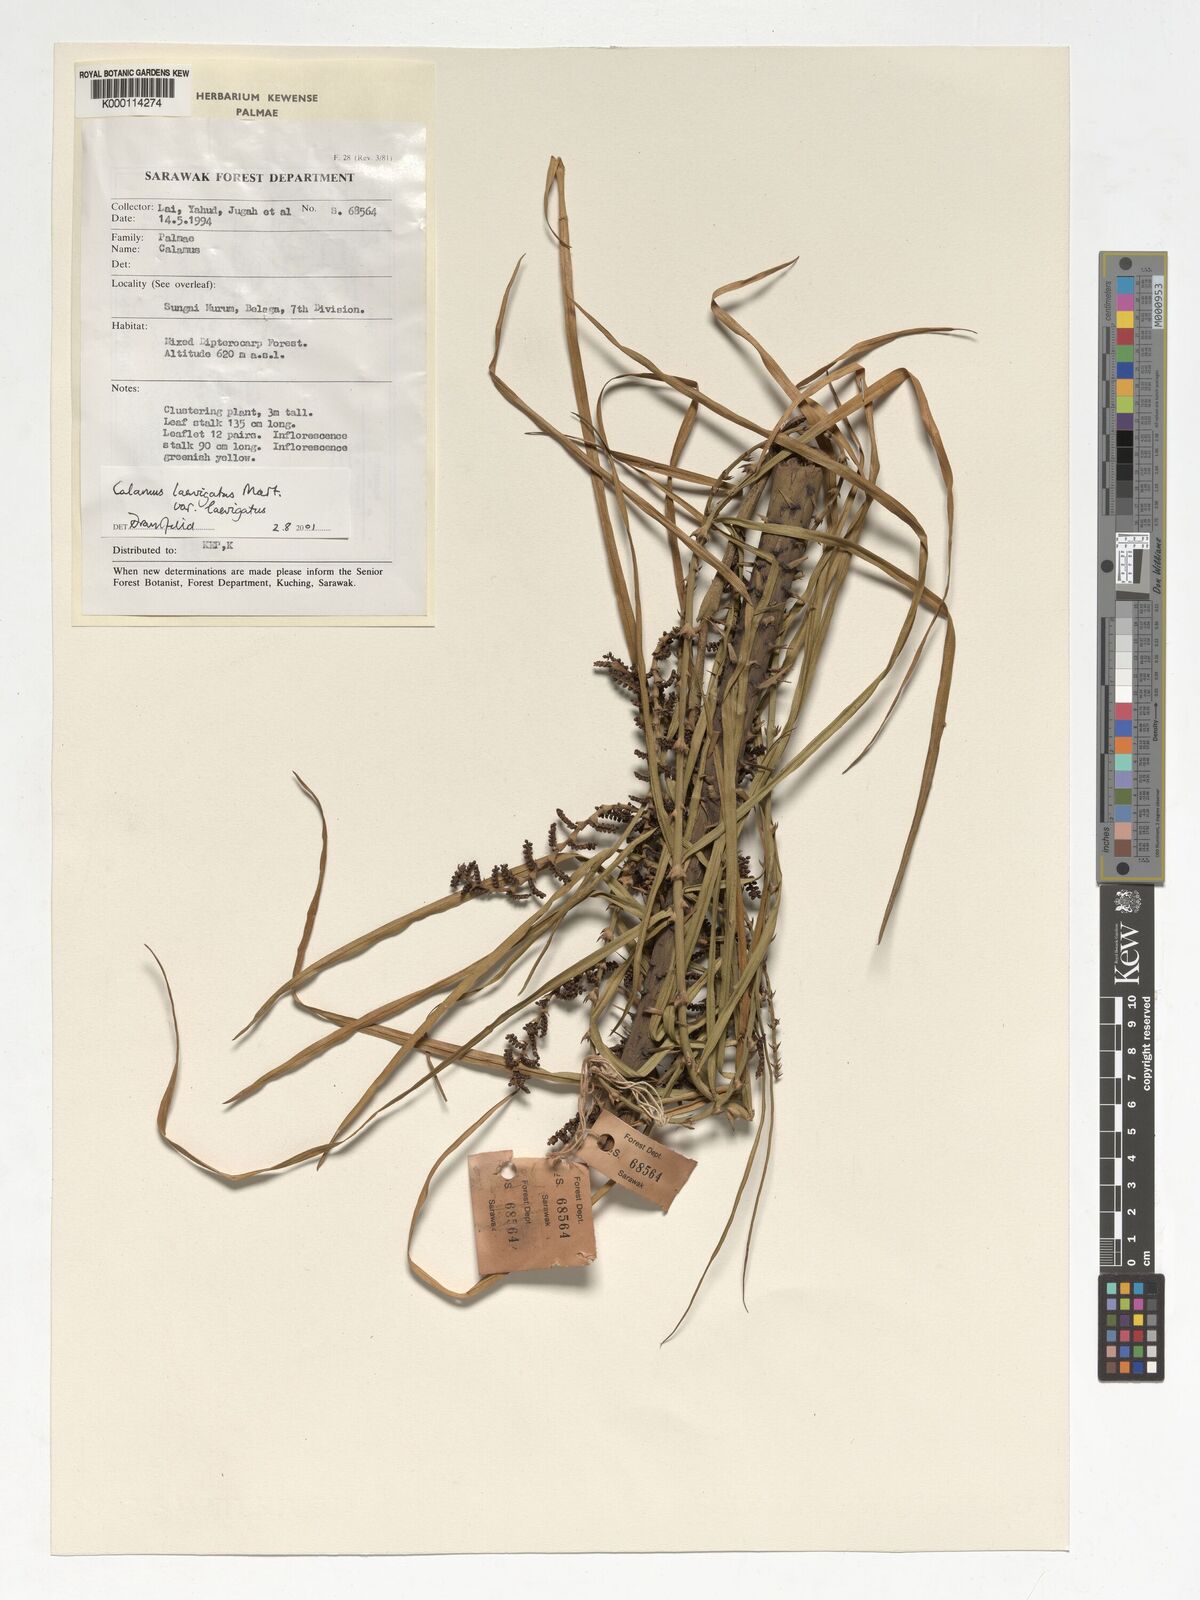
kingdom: Plantae
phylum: Tracheophyta
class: Liliopsida
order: Arecales
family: Arecaceae
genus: Calamus
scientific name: Calamus
